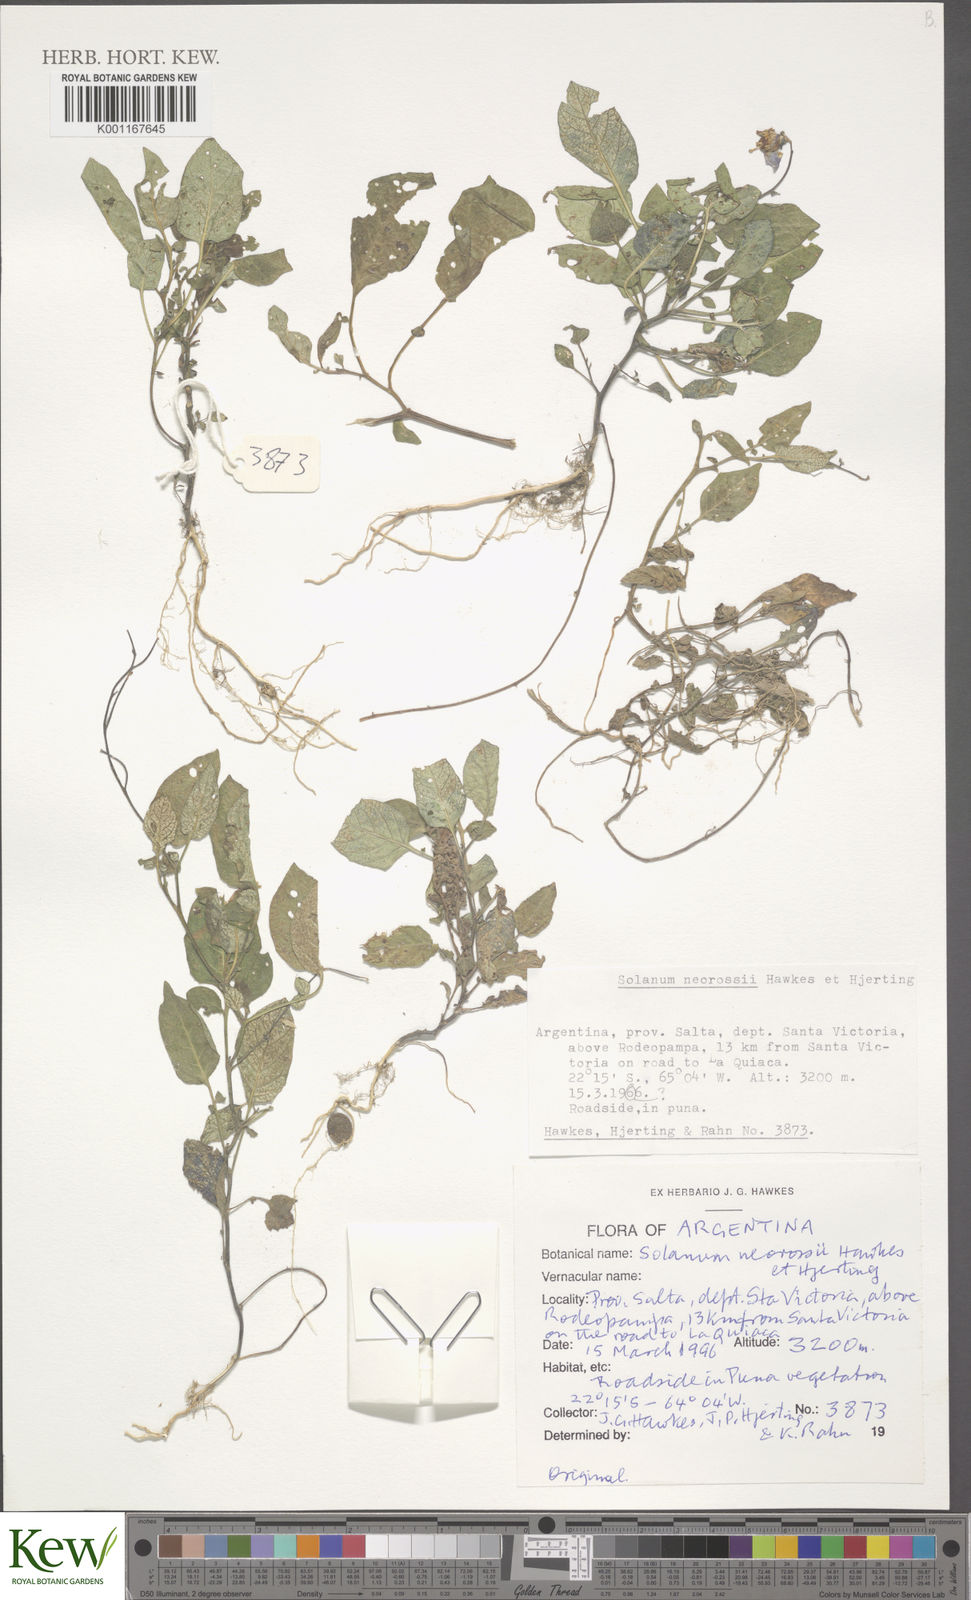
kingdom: Plantae
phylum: Tracheophyta
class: Magnoliopsida
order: Solanales
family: Solanaceae
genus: Solanum
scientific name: Solanum neorossii
